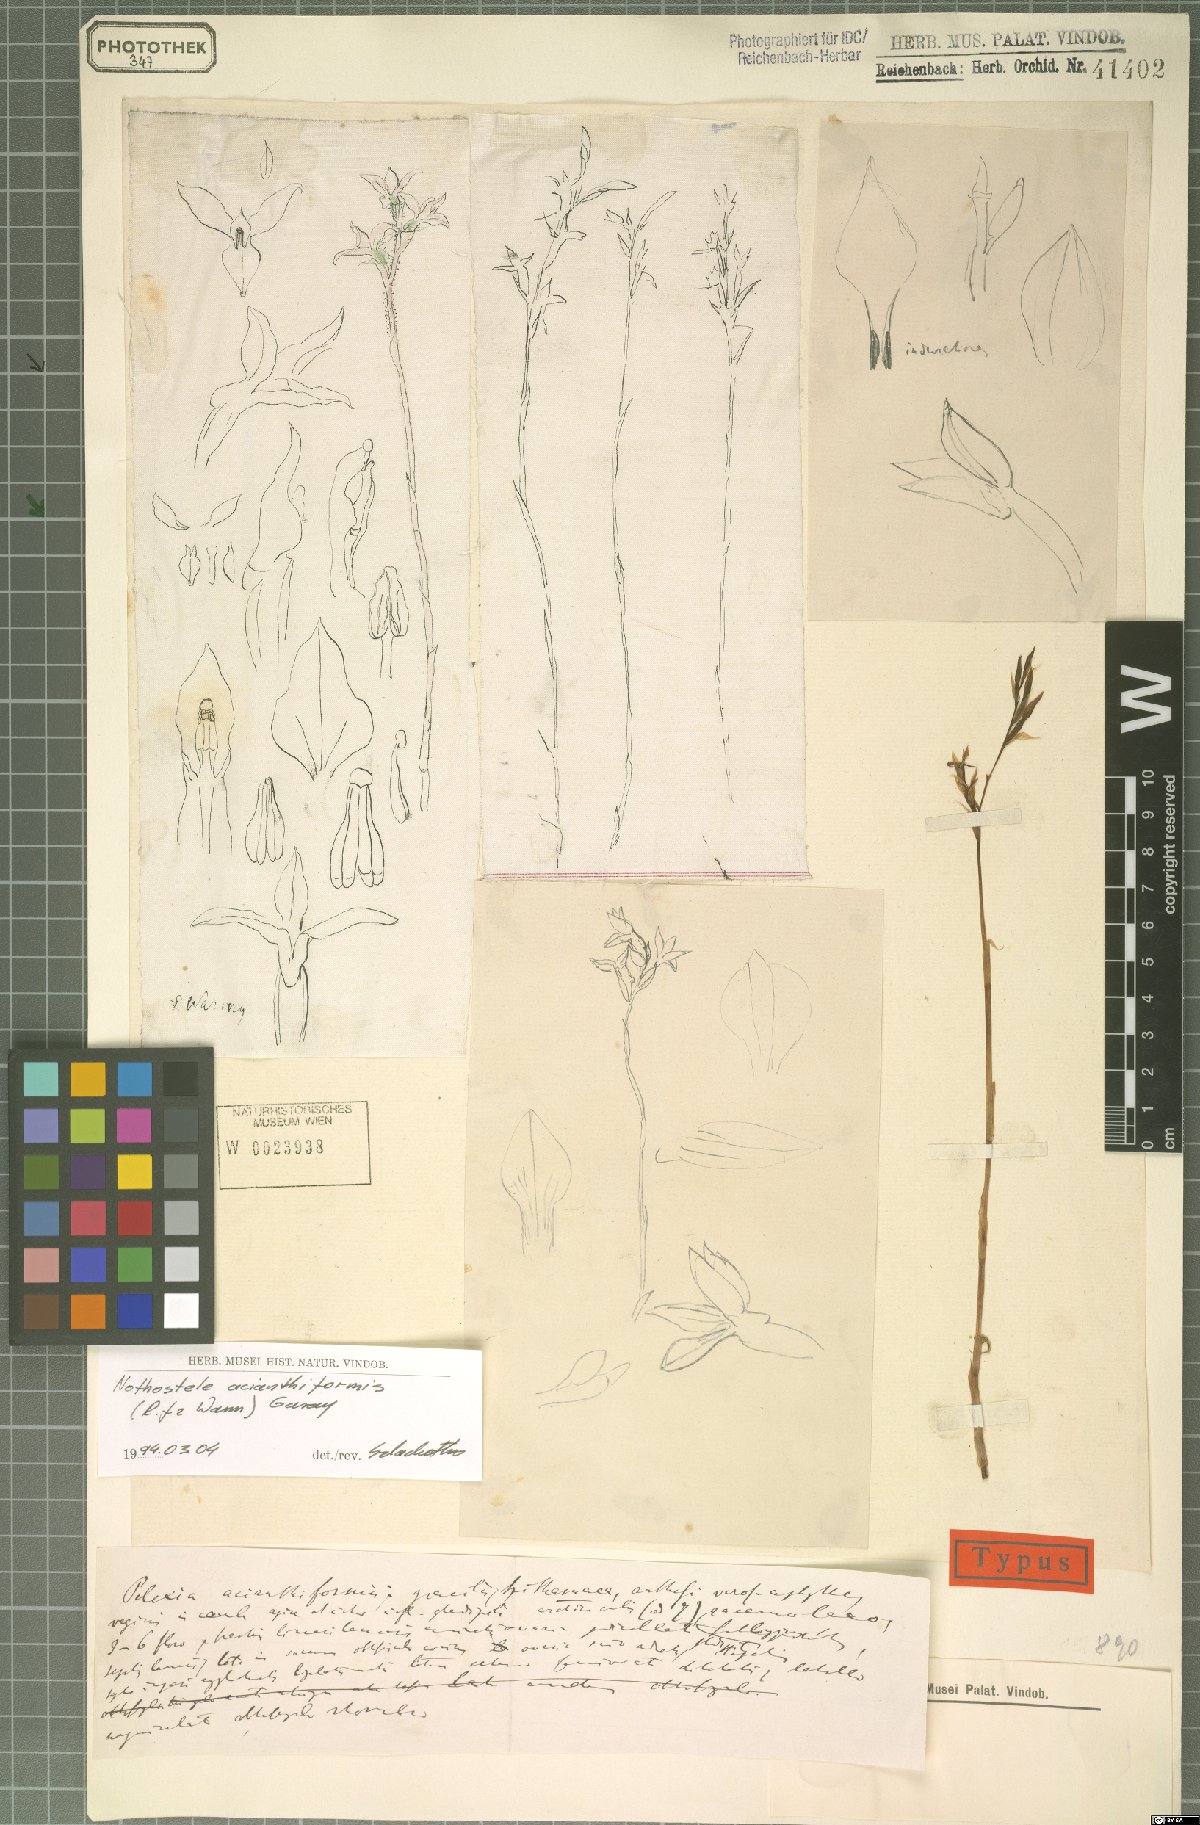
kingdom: Plantae
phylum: Tracheophyta
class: Liliopsida
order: Asparagales
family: Orchidaceae
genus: Nothostele
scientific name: Nothostele acianthiformis
